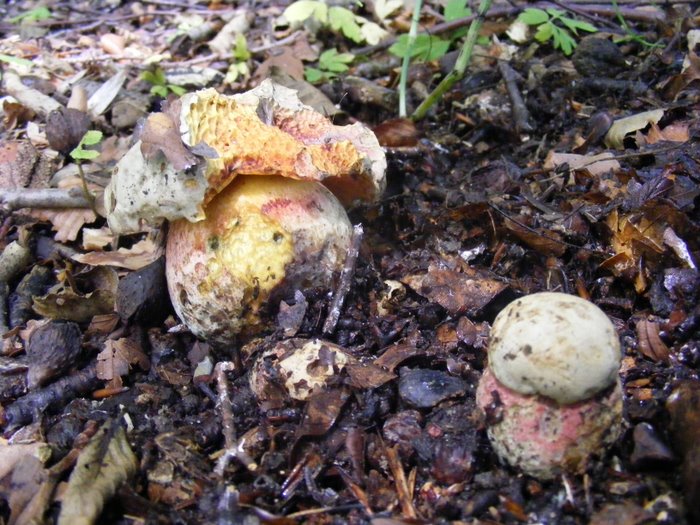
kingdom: Fungi
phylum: Basidiomycota
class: Agaricomycetes
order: Boletales
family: Boletaceae
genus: Rubroboletus
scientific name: Rubroboletus satanas
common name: Satans rørhat
